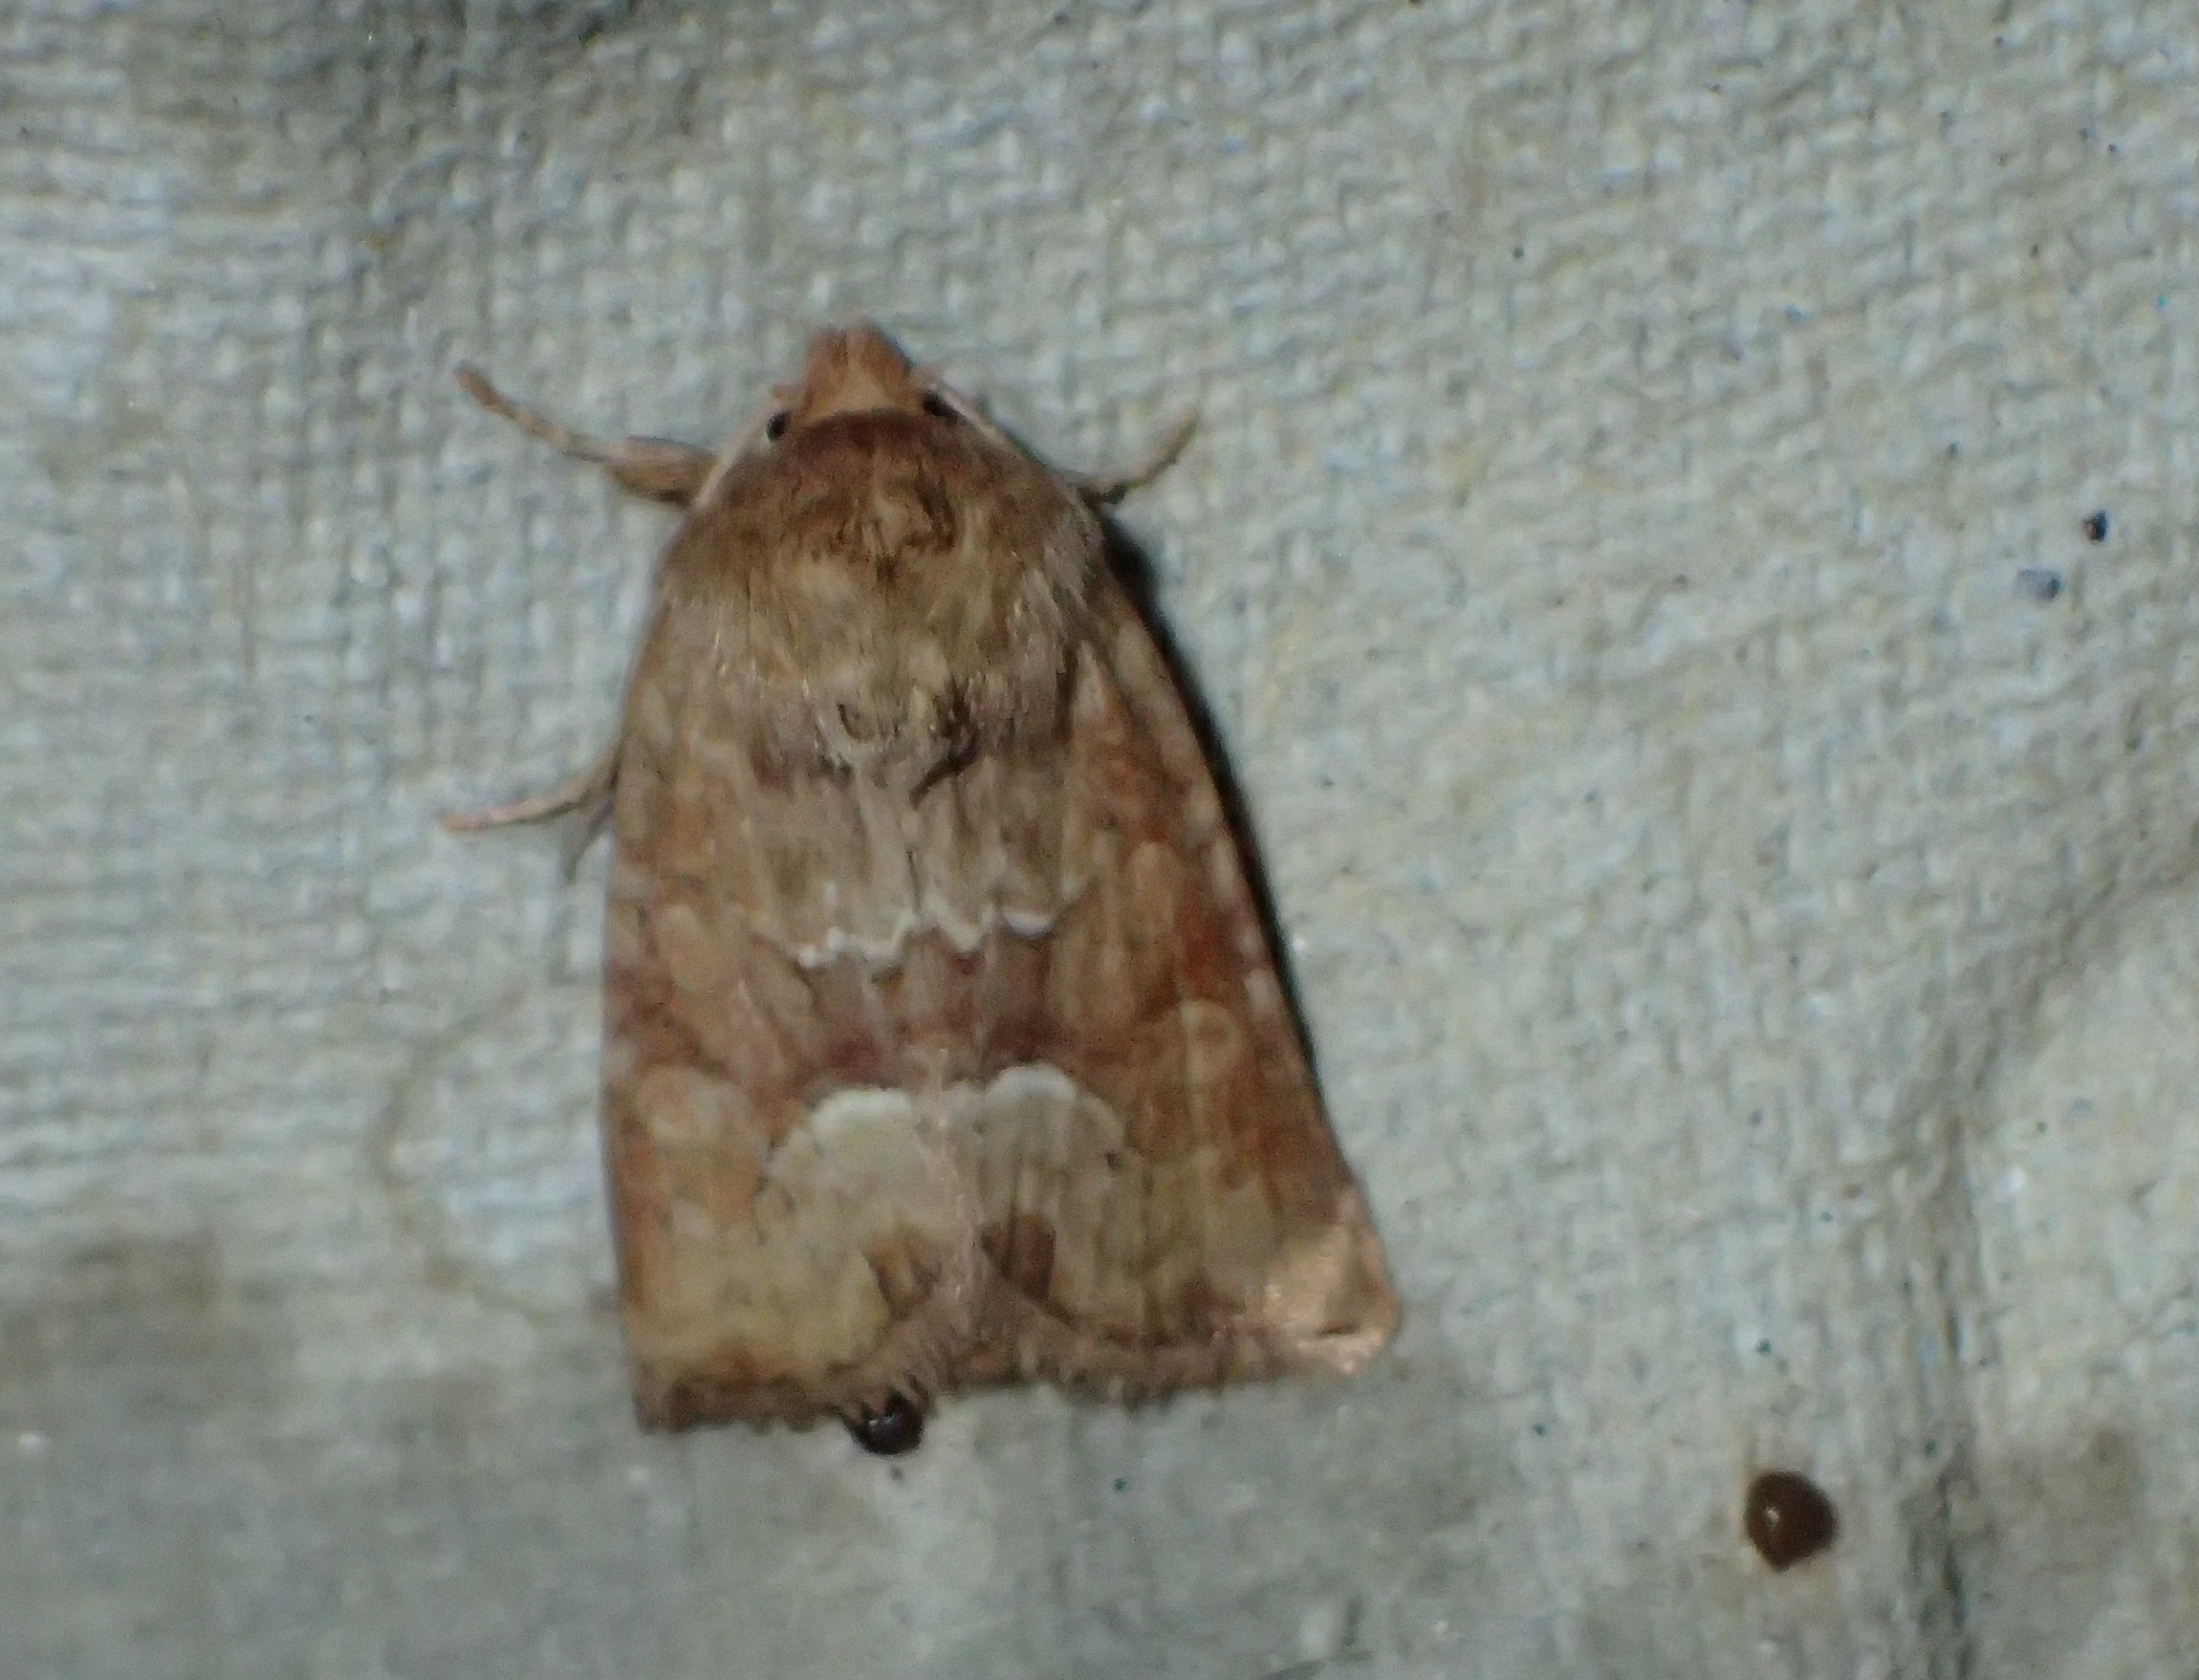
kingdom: Animalia
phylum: Arthropoda
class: Insecta
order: Lepidoptera
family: Noctuidae
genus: Oligia
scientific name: Oligia fasciuncula
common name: Båndet tyv
